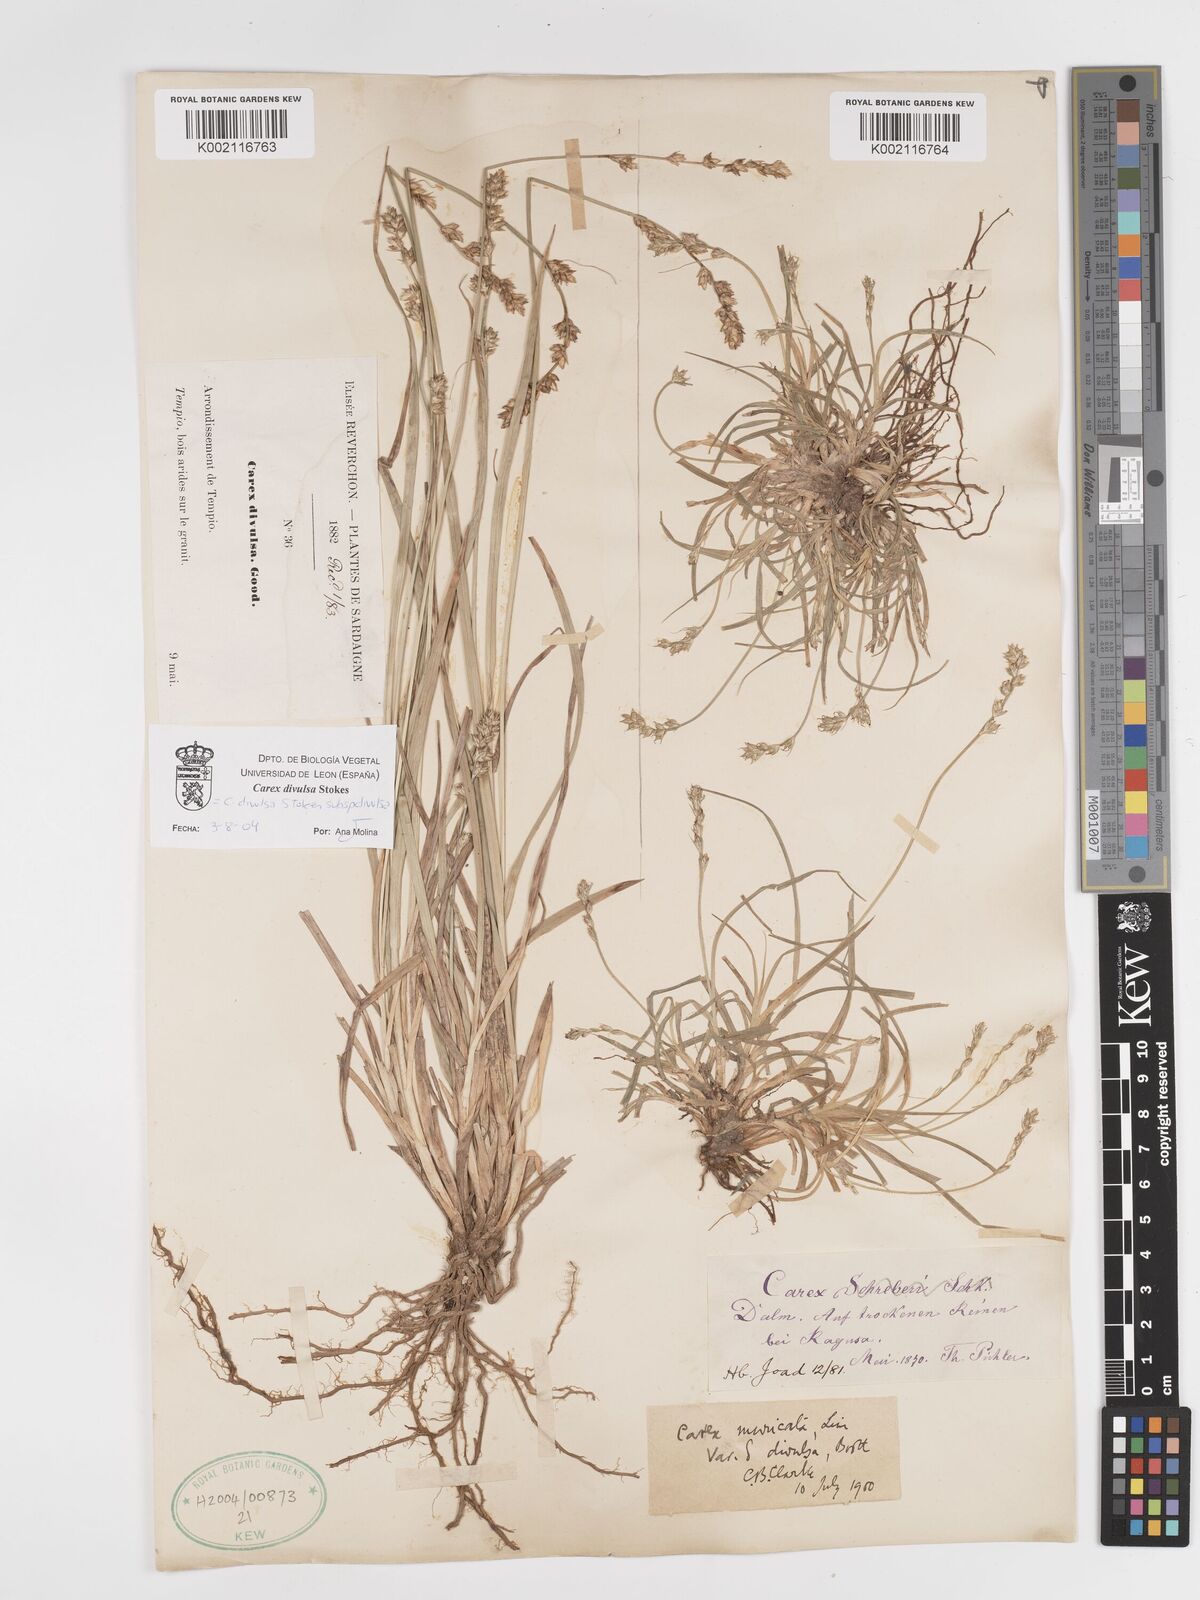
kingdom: Plantae
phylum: Tracheophyta
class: Liliopsida
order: Poales
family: Cyperaceae
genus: Carex
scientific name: Carex divulsa
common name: Grassland sedge
